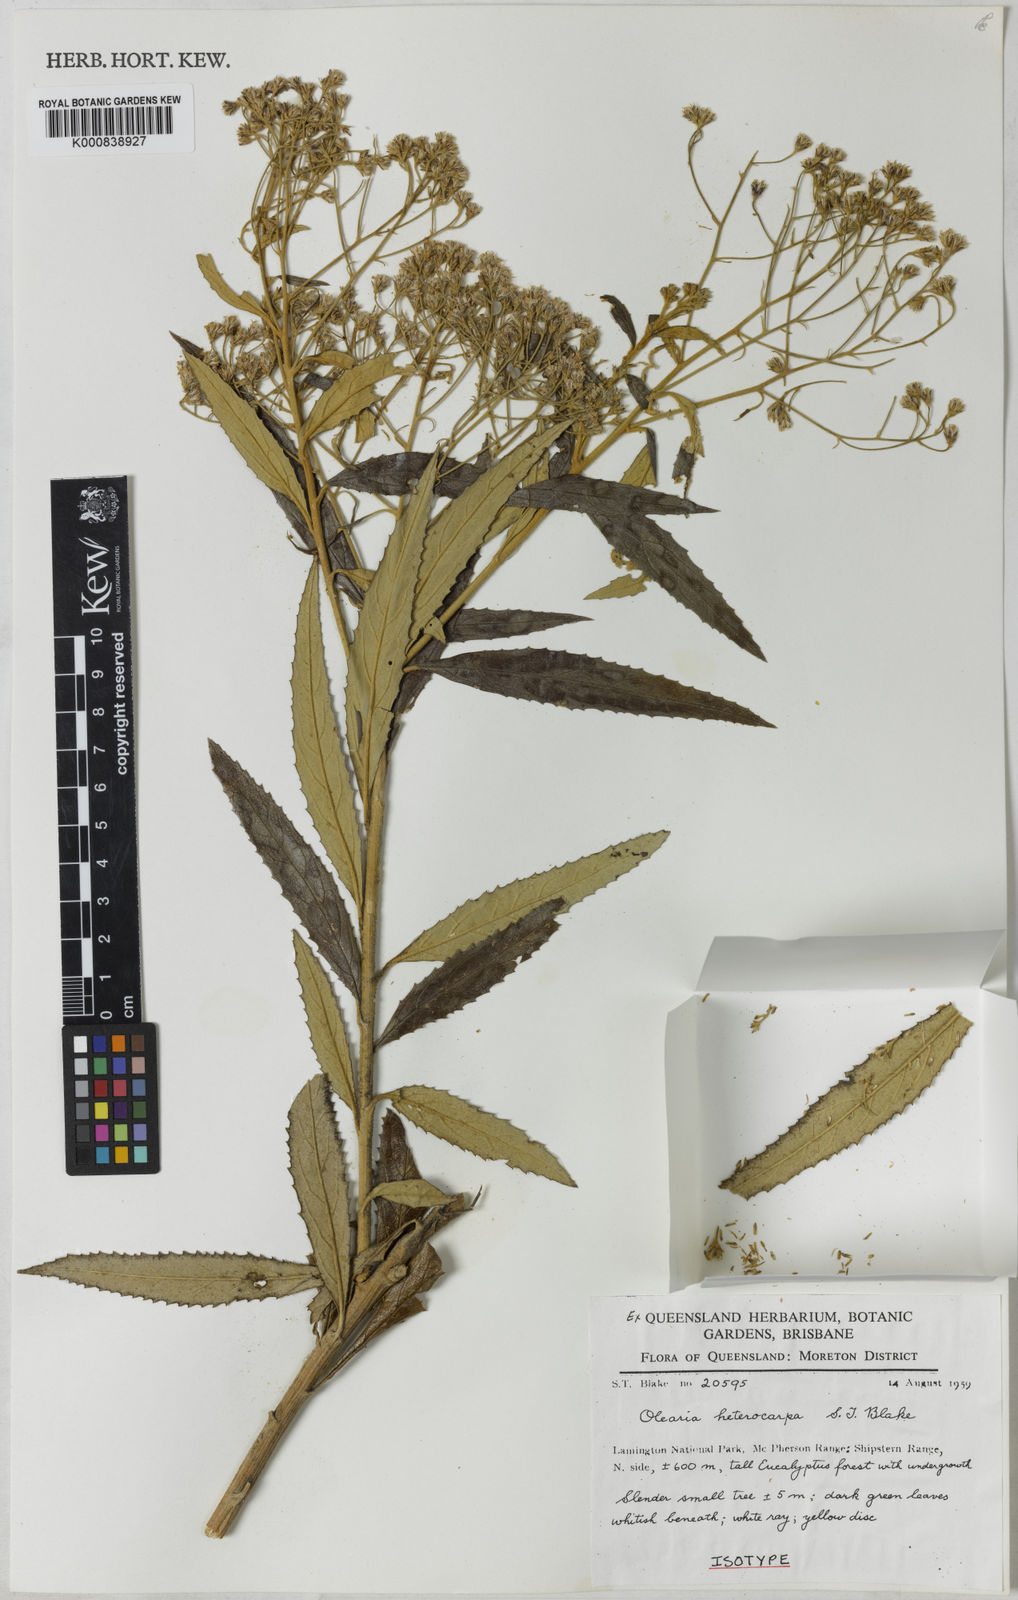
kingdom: Plantae
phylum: Tracheophyta
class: Magnoliopsida
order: Asterales
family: Asteraceae
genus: Olearia
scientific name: Olearia heterocarpa
